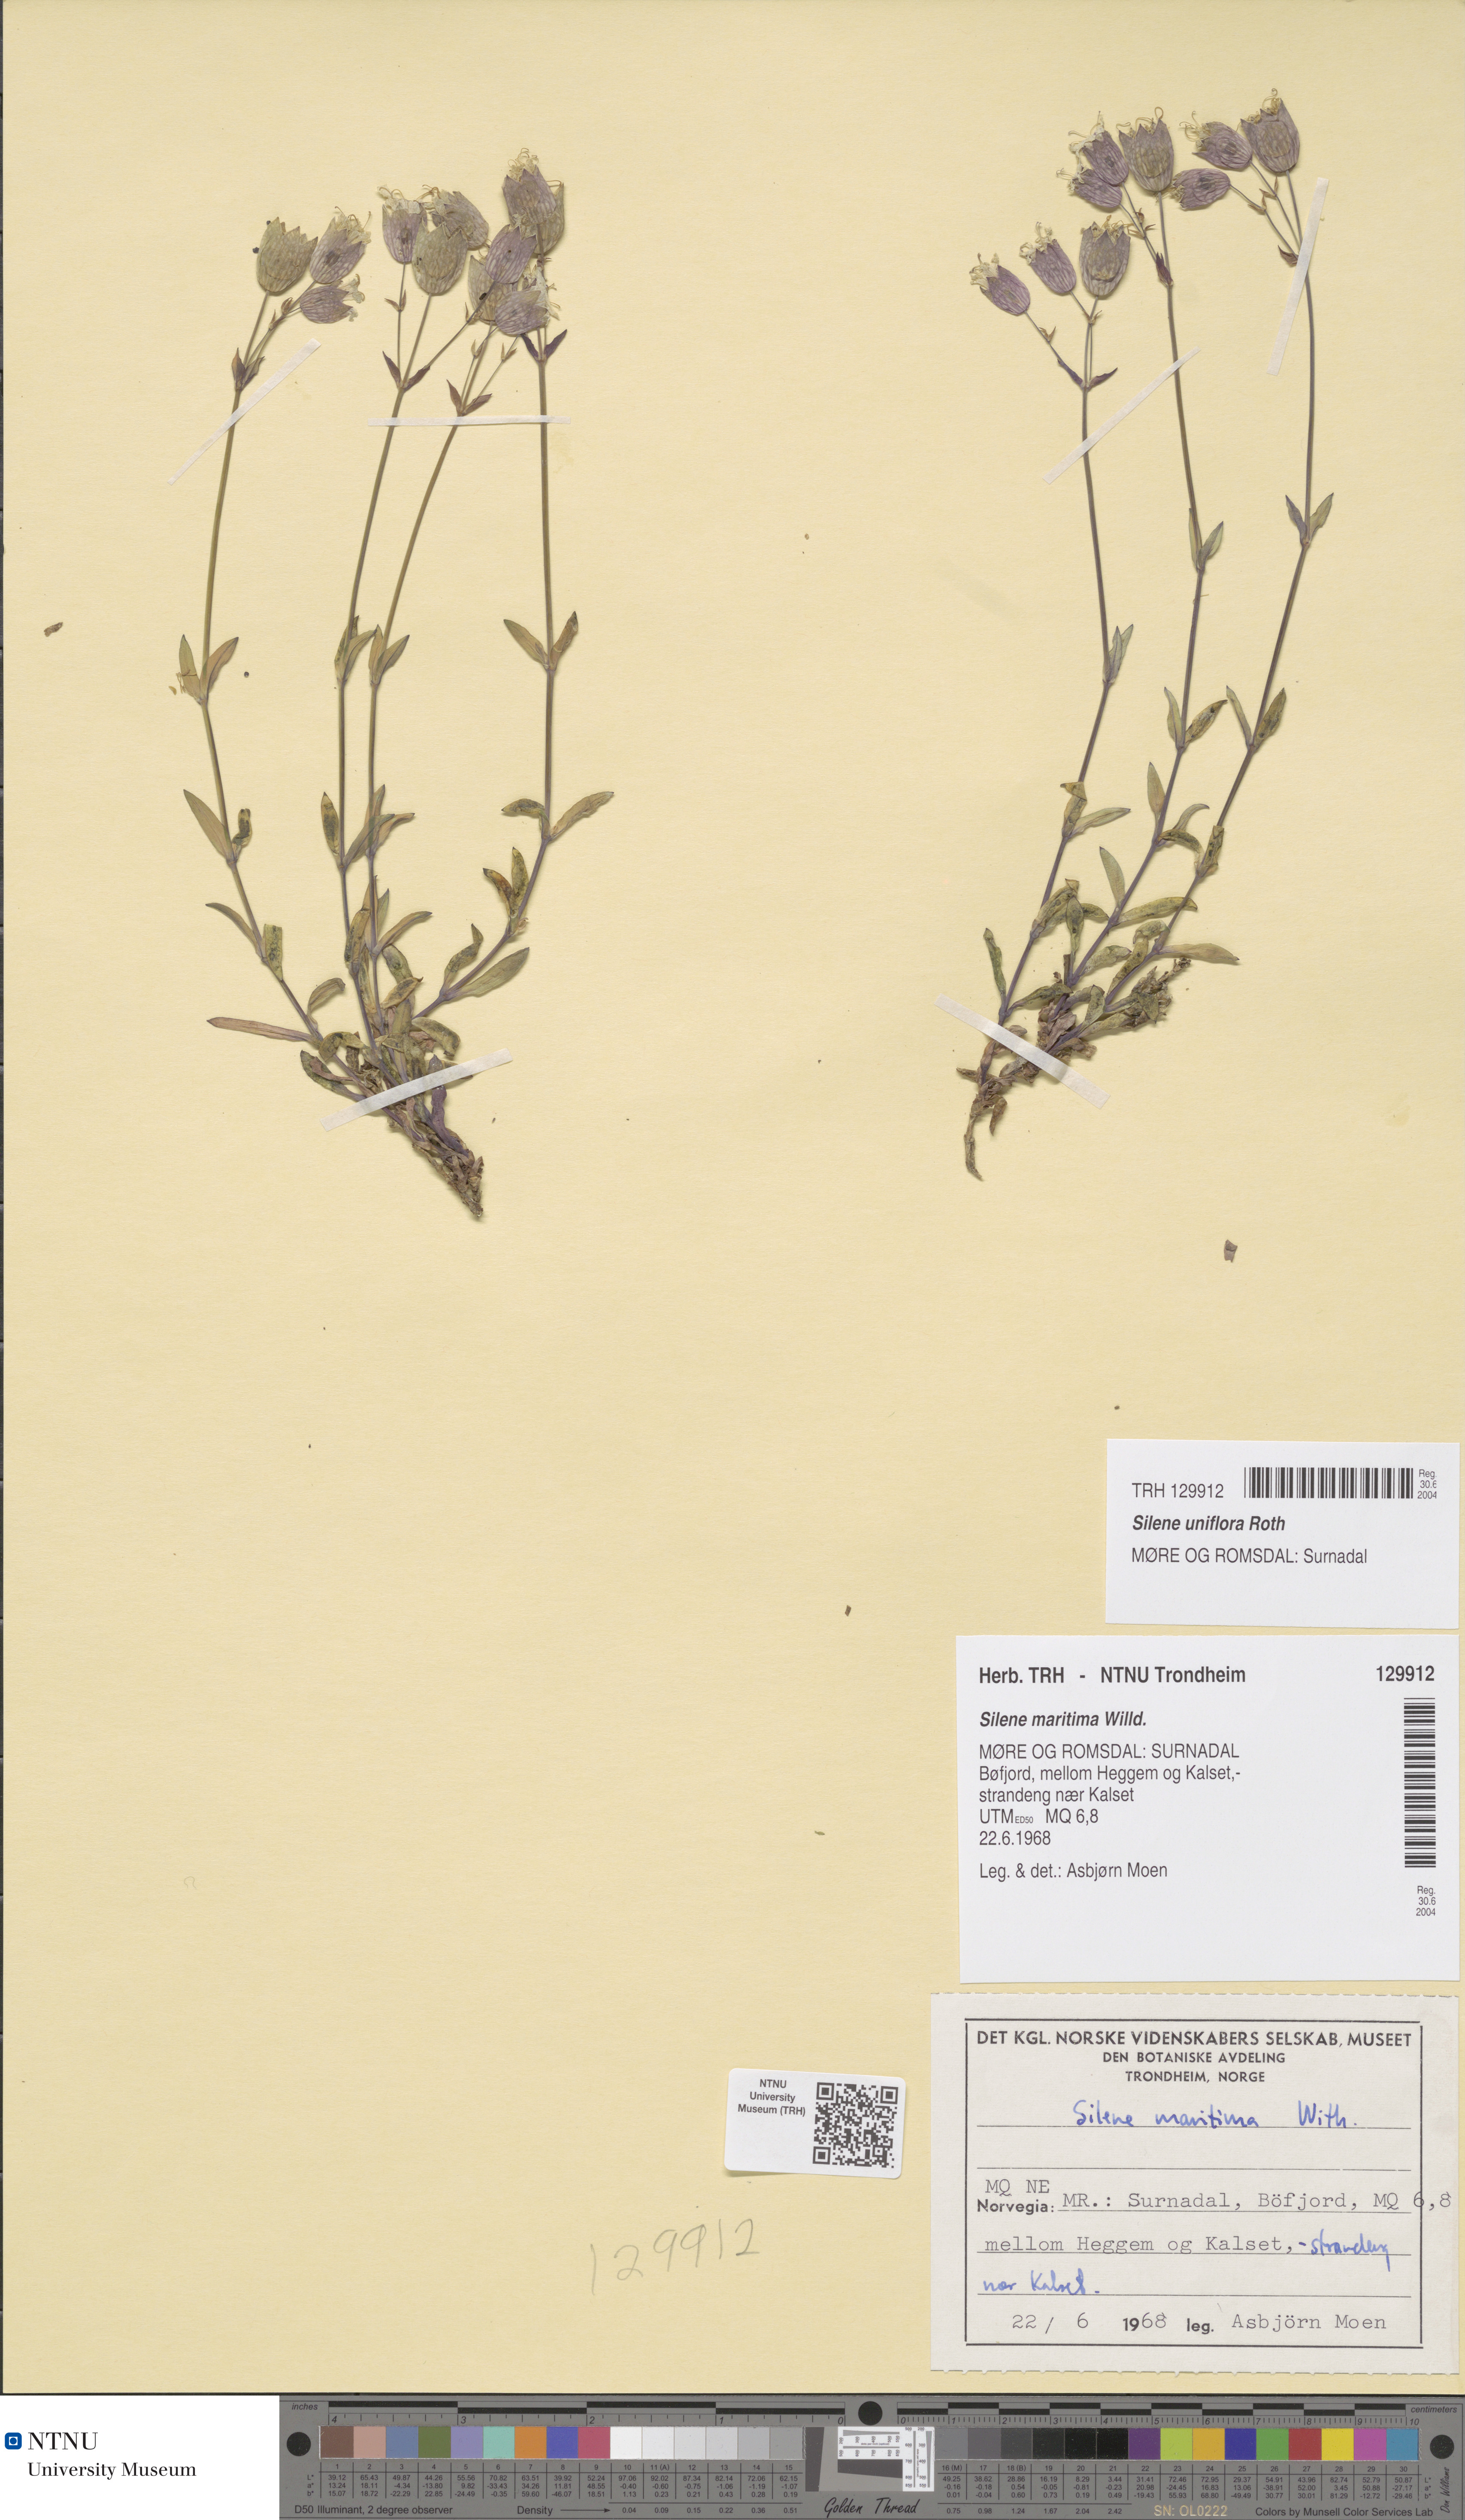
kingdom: Plantae
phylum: Tracheophyta
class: Magnoliopsida
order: Caryophyllales
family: Caryophyllaceae
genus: Silene
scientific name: Silene uniflora
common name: Sea campion
